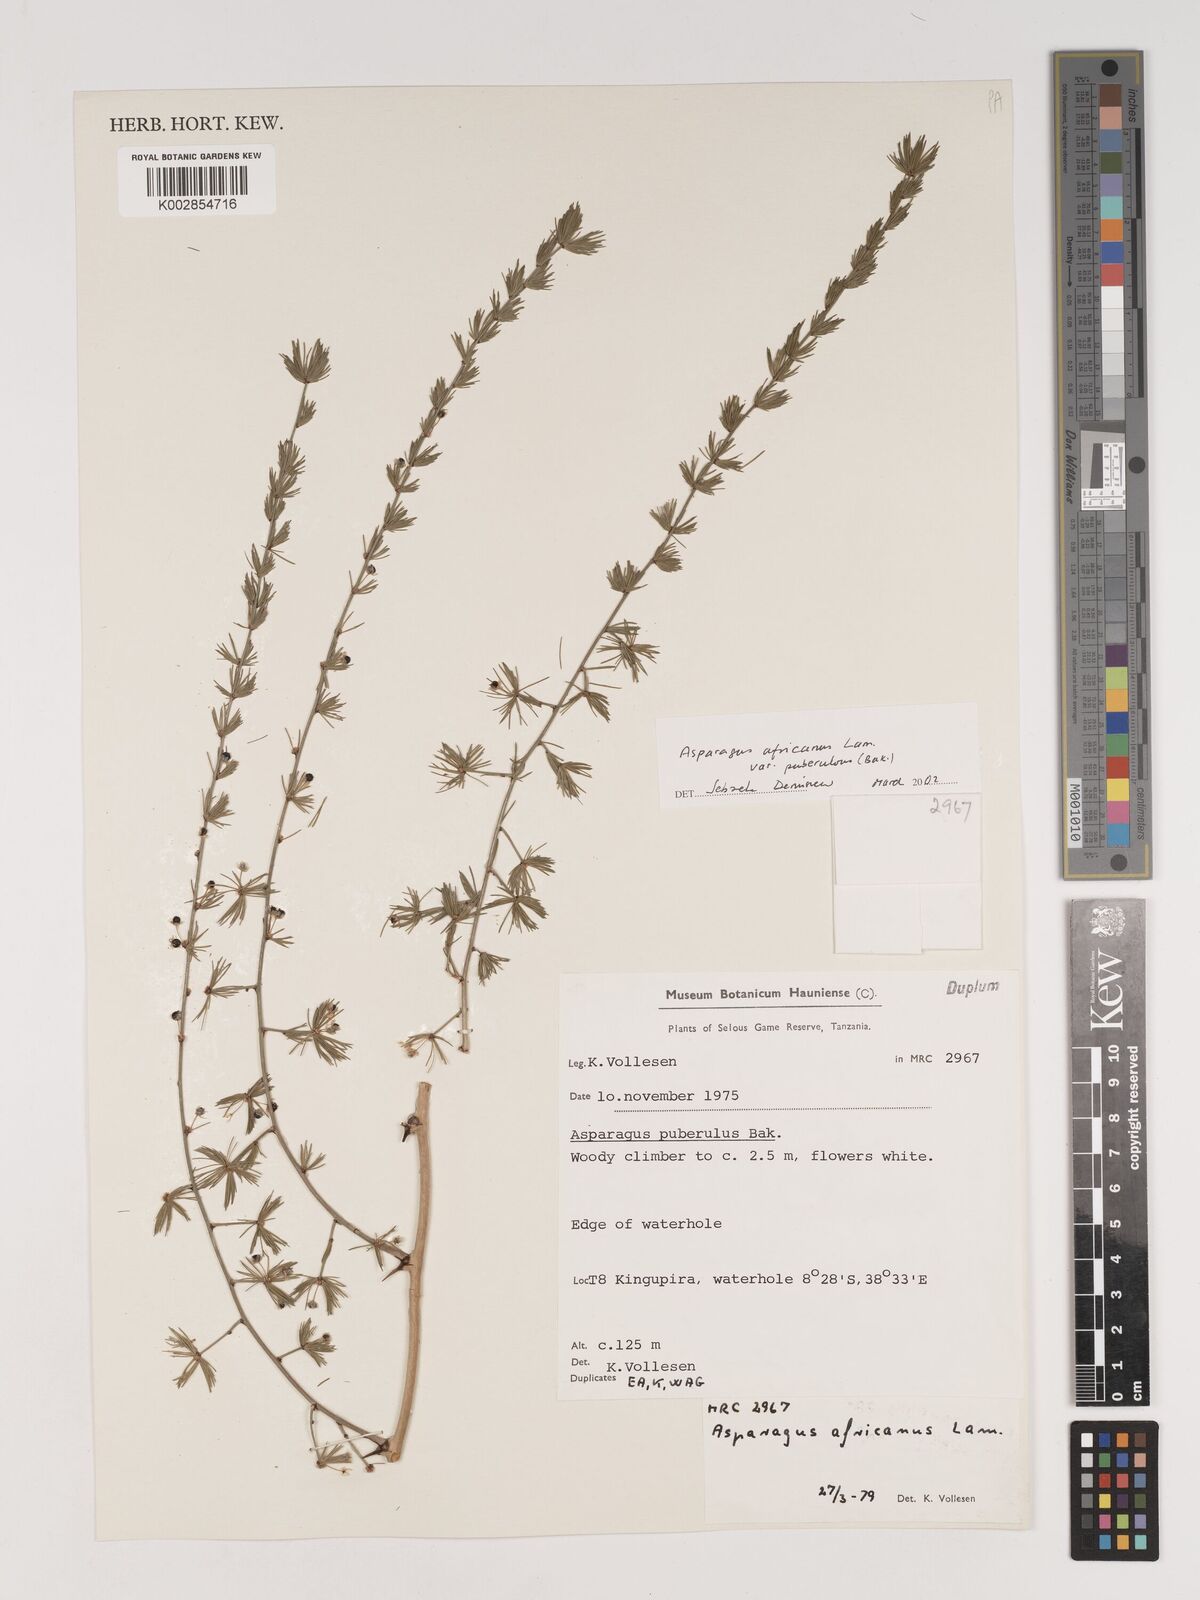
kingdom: Plantae
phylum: Tracheophyta
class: Liliopsida
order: Asparagales
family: Asparagaceae
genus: Asparagus
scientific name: Asparagus africanus
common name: Asparagus-fern
